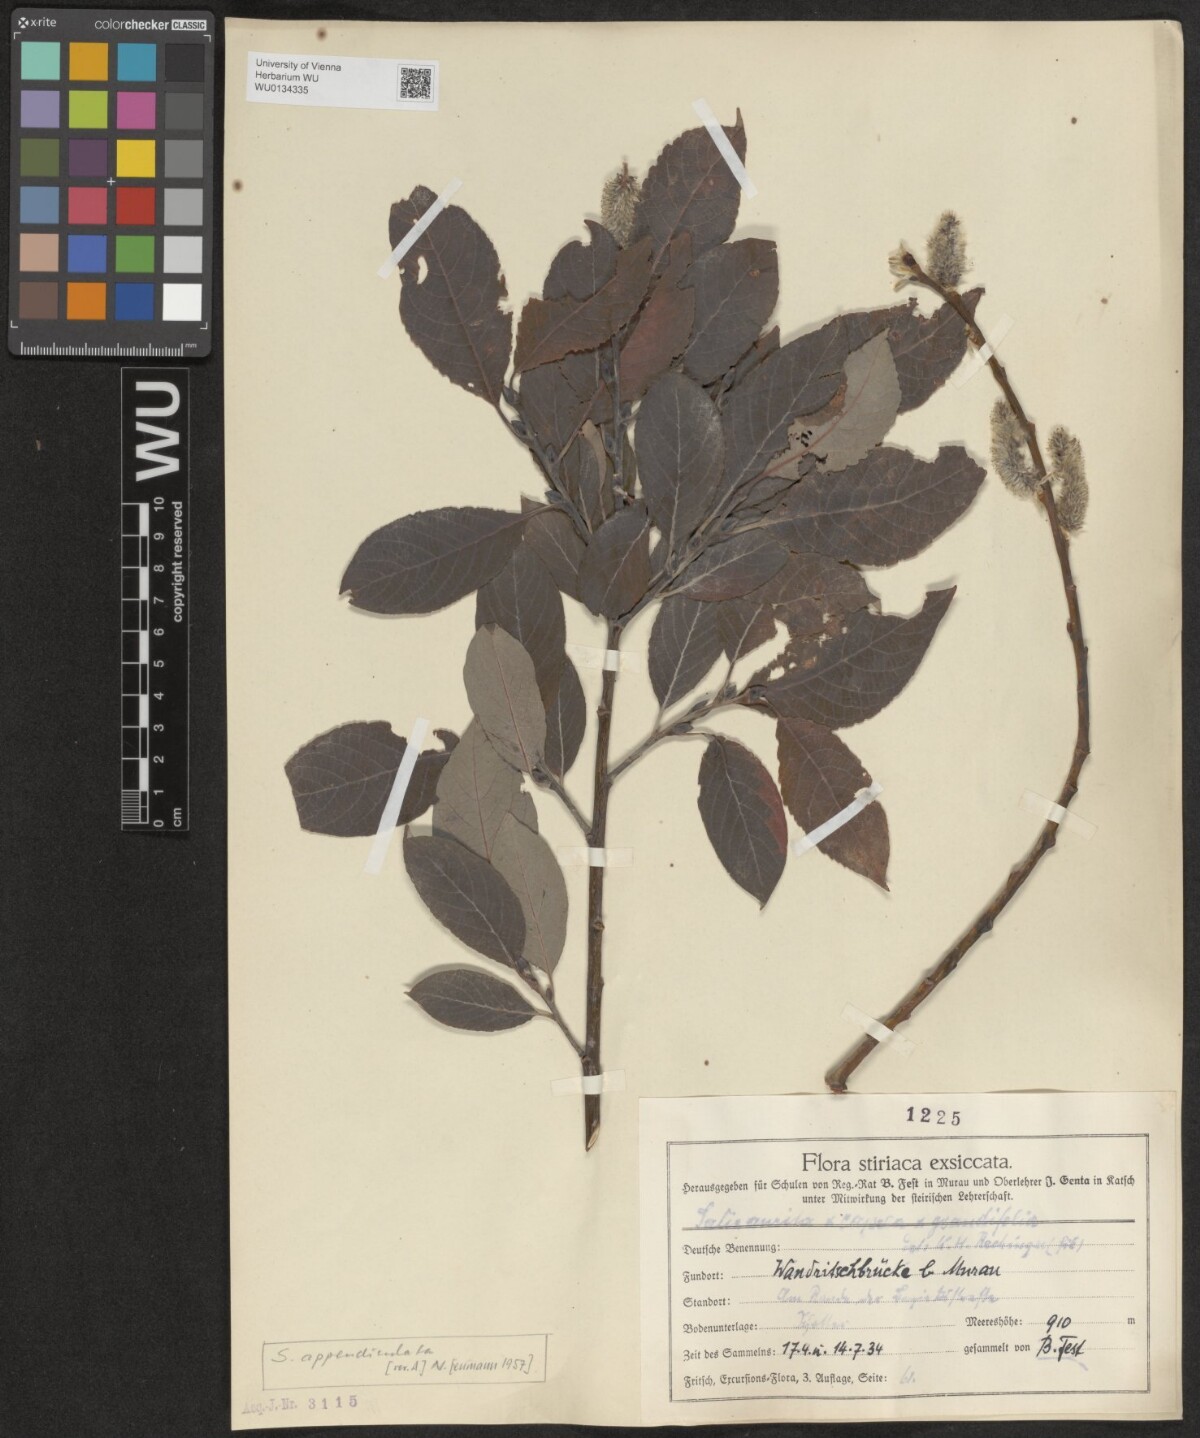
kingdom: Plantae
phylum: Tracheophyta
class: Magnoliopsida
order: Malpighiales
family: Salicaceae
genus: Salix
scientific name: Salix appendiculata
